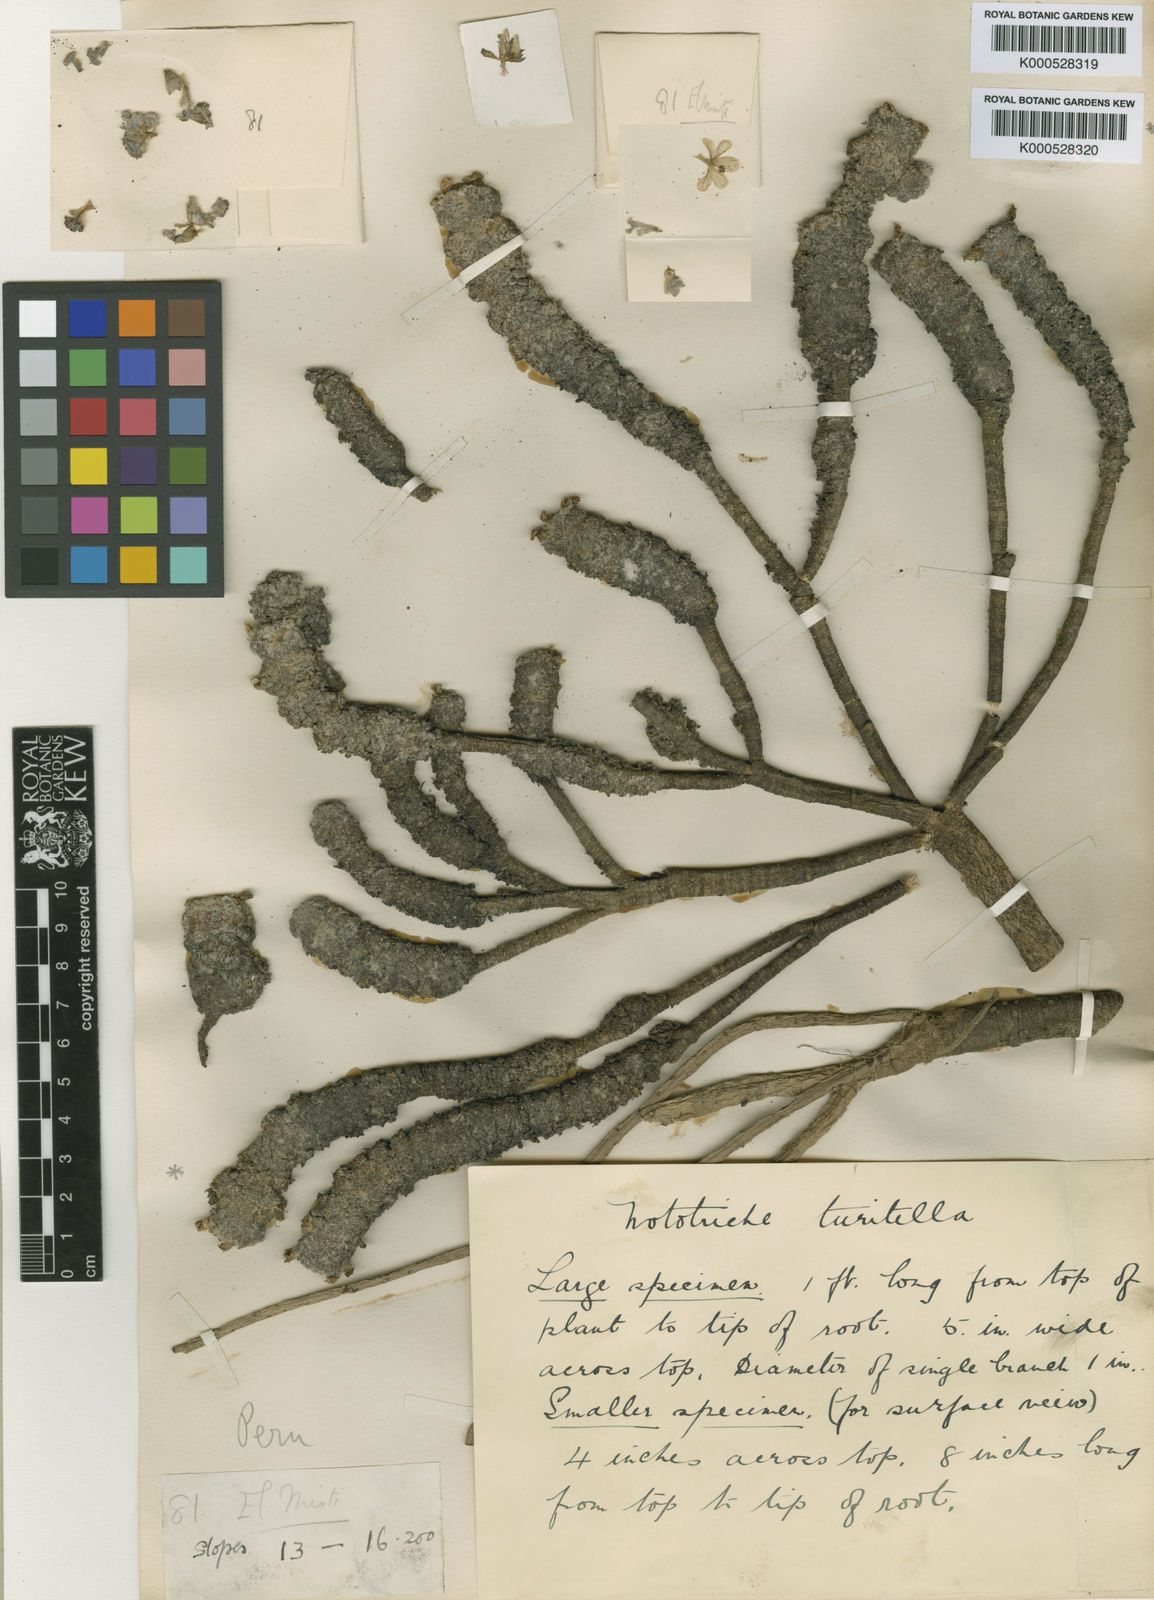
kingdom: Plantae
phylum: Tracheophyta
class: Magnoliopsida
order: Malvales
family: Malvaceae
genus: Nototriche
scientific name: Nototriche turritella
